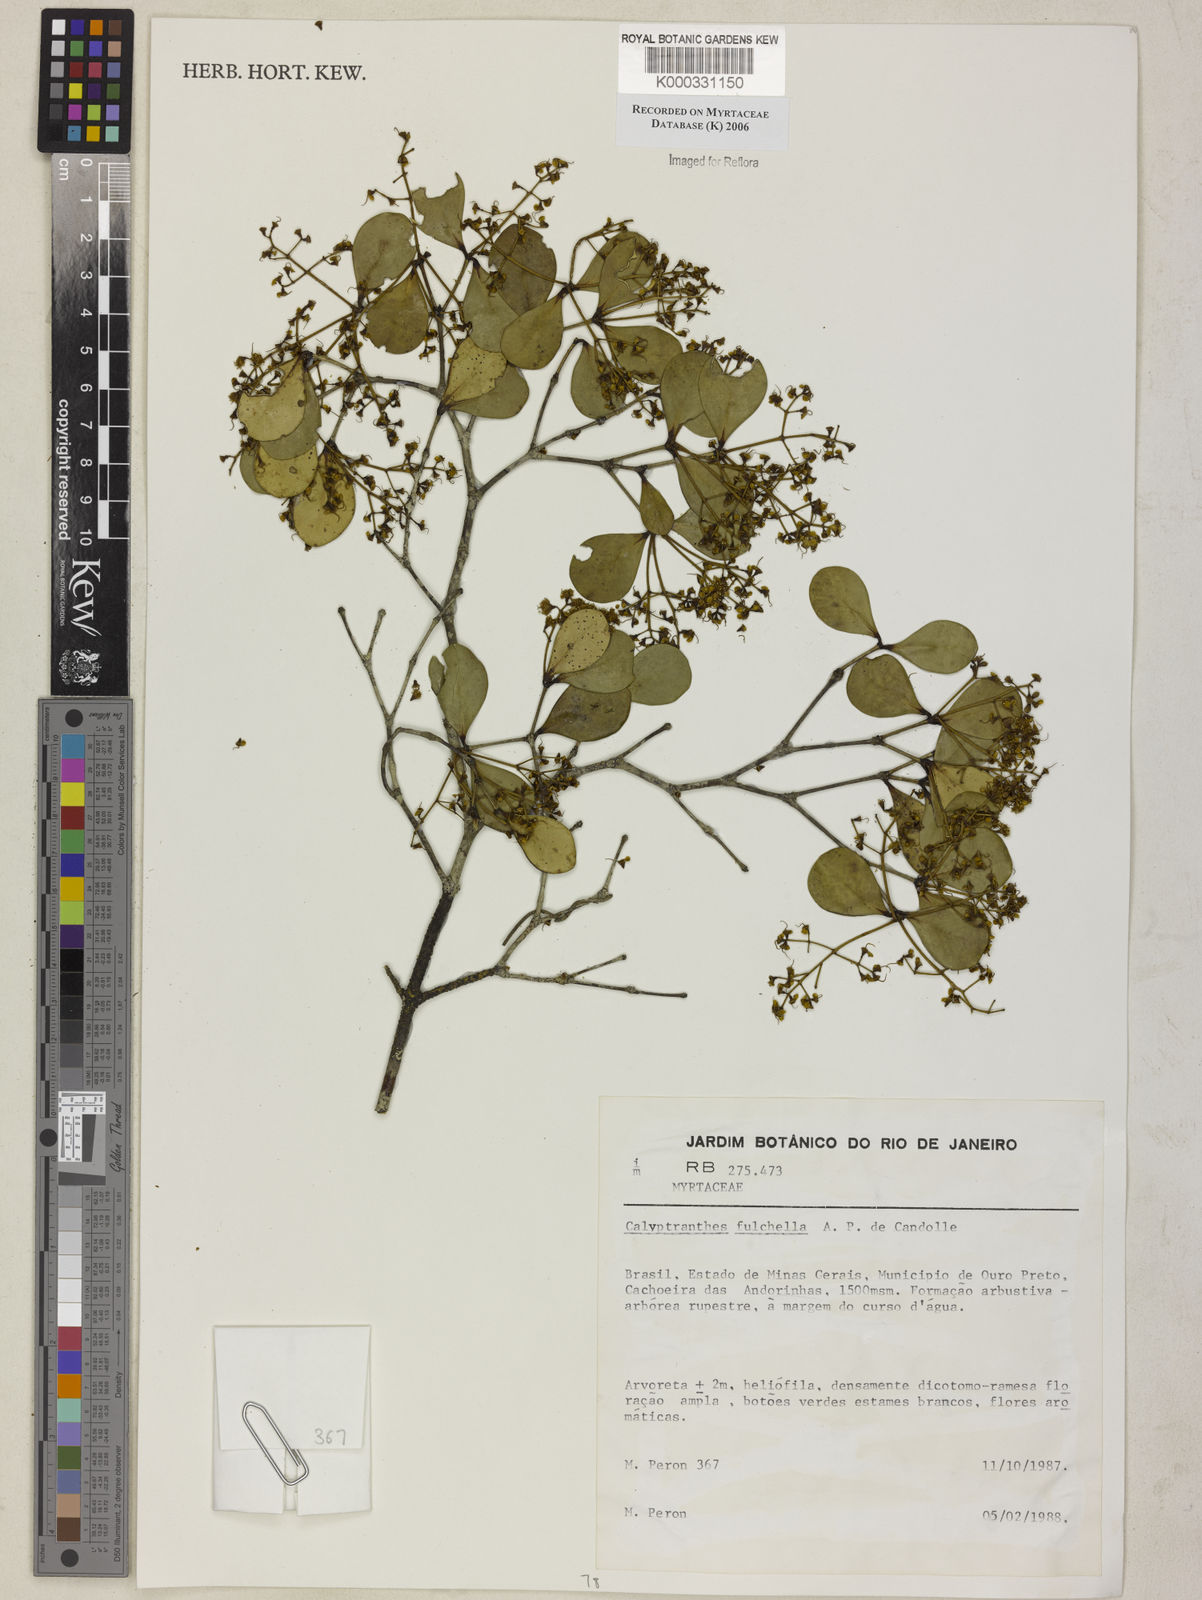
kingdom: Plantae
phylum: Tracheophyta
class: Magnoliopsida
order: Myrtales
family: Myrtaceae
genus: Myrcia
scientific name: Myrcia pulchella
